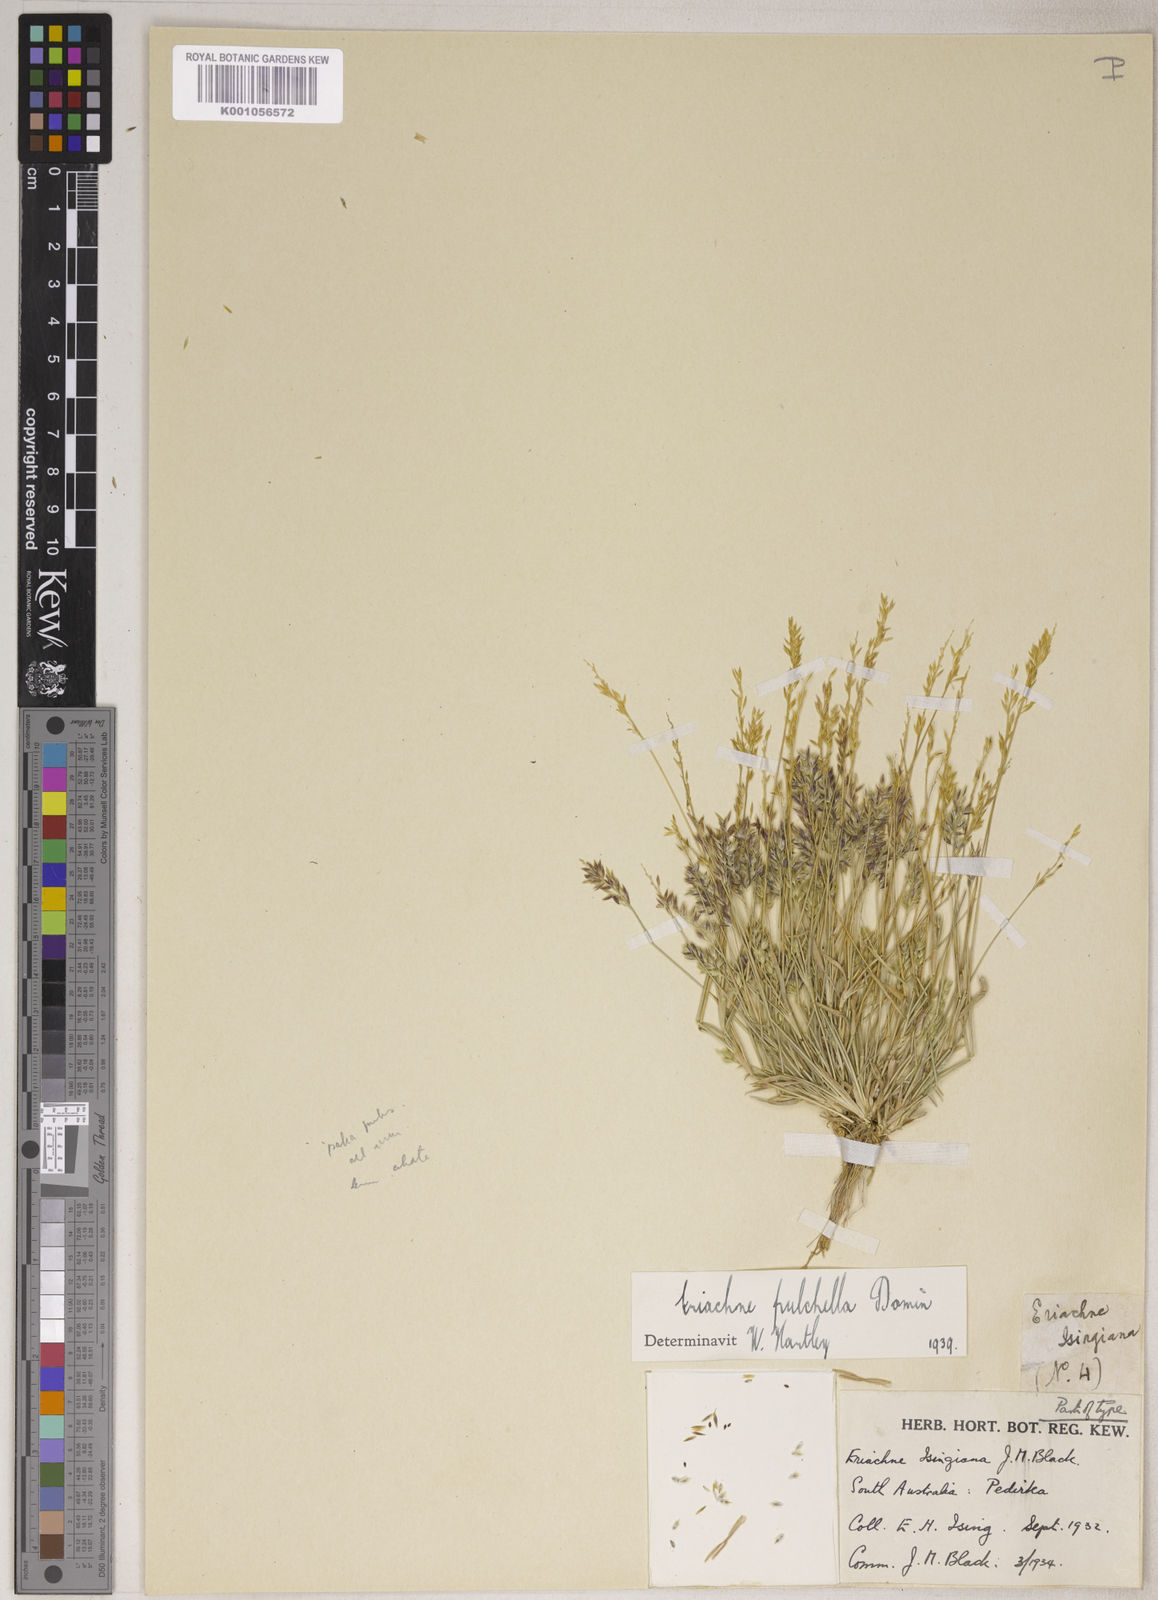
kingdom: Plantae
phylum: Tracheophyta
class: Liliopsida
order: Poales
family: Poaceae
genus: Eriachne
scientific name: Eriachne pulchella
